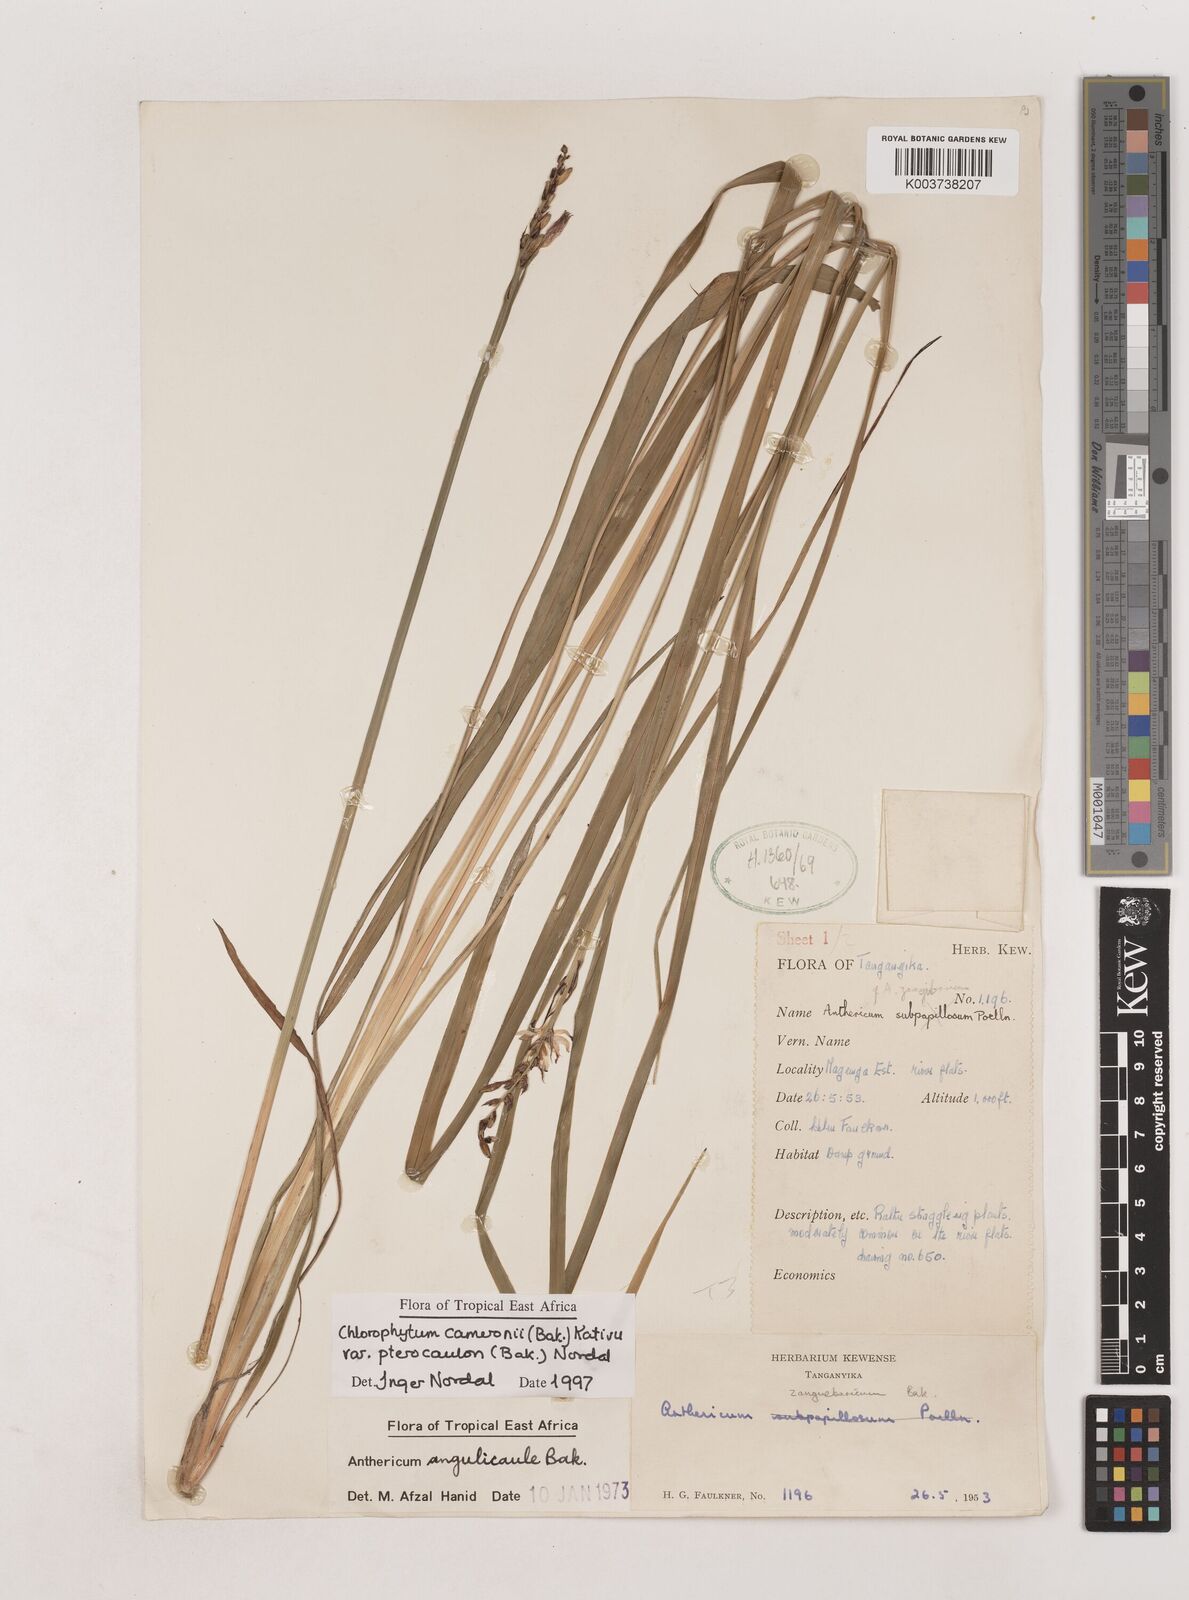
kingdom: Plantae
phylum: Tracheophyta
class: Liliopsida
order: Asparagales
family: Asparagaceae
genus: Chlorophytum
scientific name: Chlorophytum cameronii
